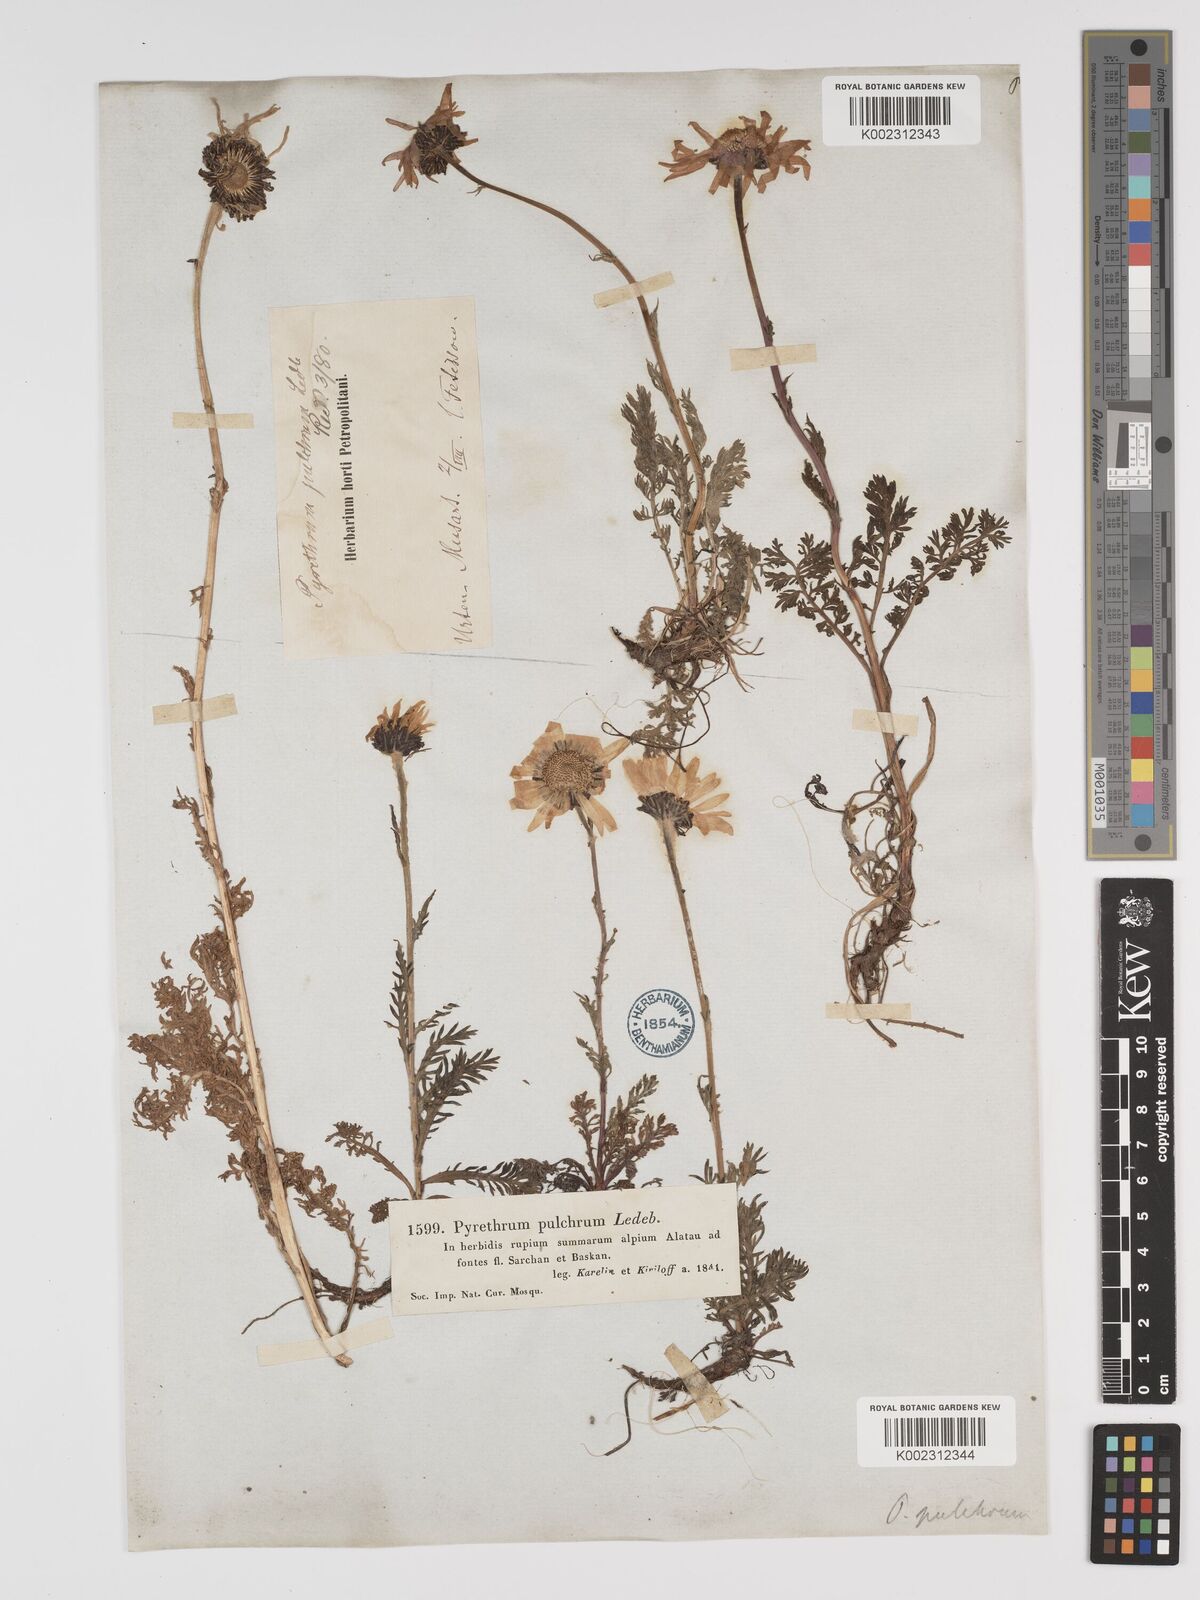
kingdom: Plantae
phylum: Tracheophyta
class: Magnoliopsida
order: Asterales
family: Asteraceae
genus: Tanacetum
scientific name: Tanacetum pulchrum
